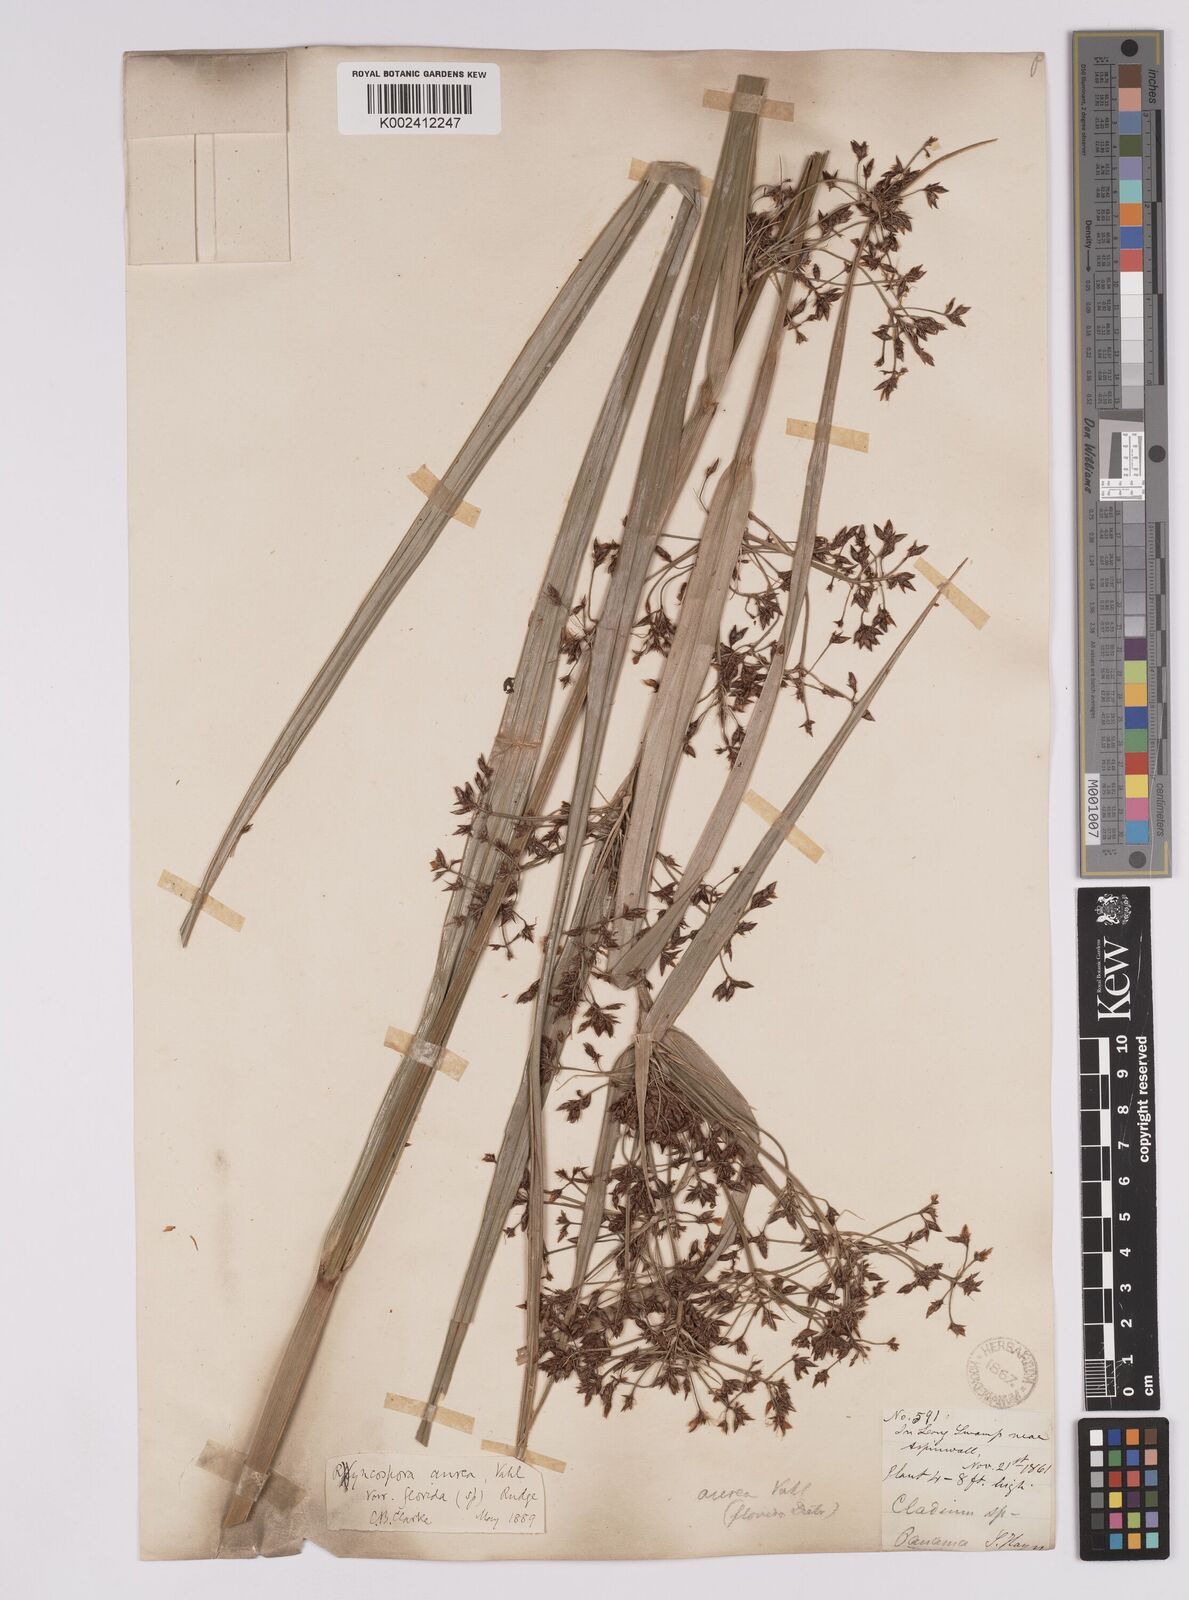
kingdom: Plantae
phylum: Tracheophyta
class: Liliopsida
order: Poales
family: Cyperaceae
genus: Rhynchospora
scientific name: Rhynchospora corymbosa
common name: Golden beak sedge
